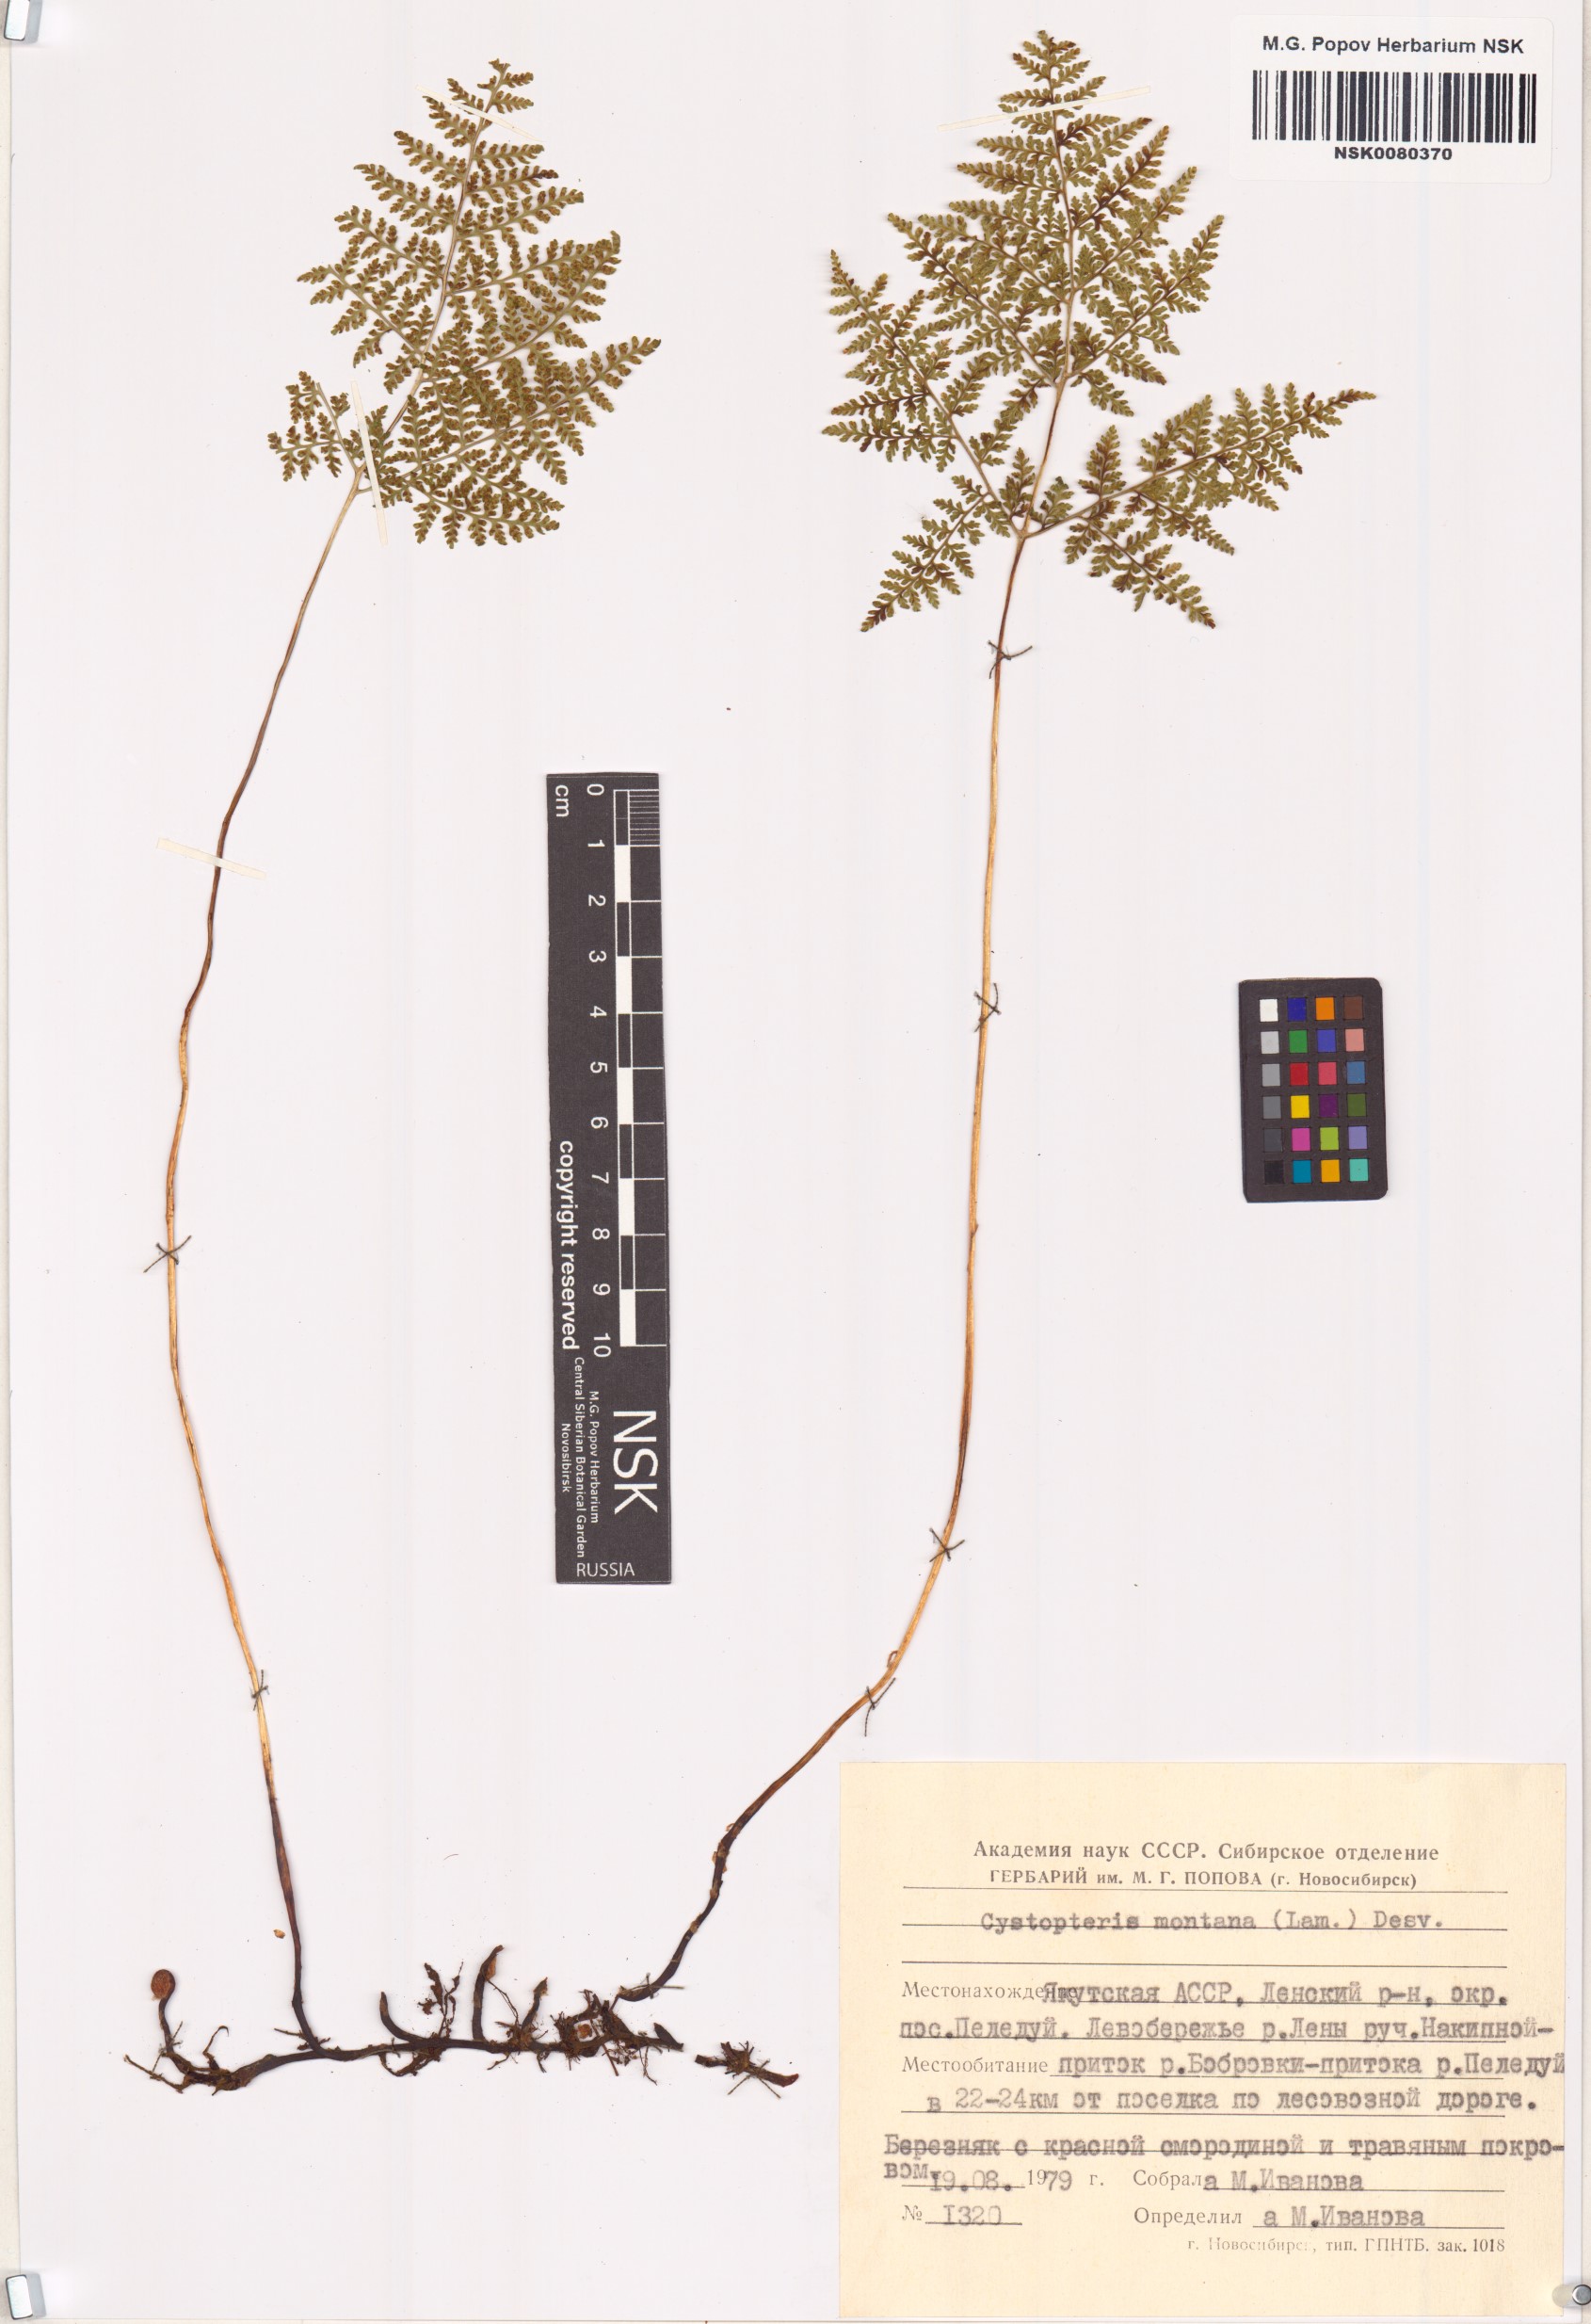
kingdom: Plantae
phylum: Tracheophyta
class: Polypodiopsida
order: Polypodiales
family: Cystopteridaceae
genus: Cystopteris
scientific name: Cystopteris montana
